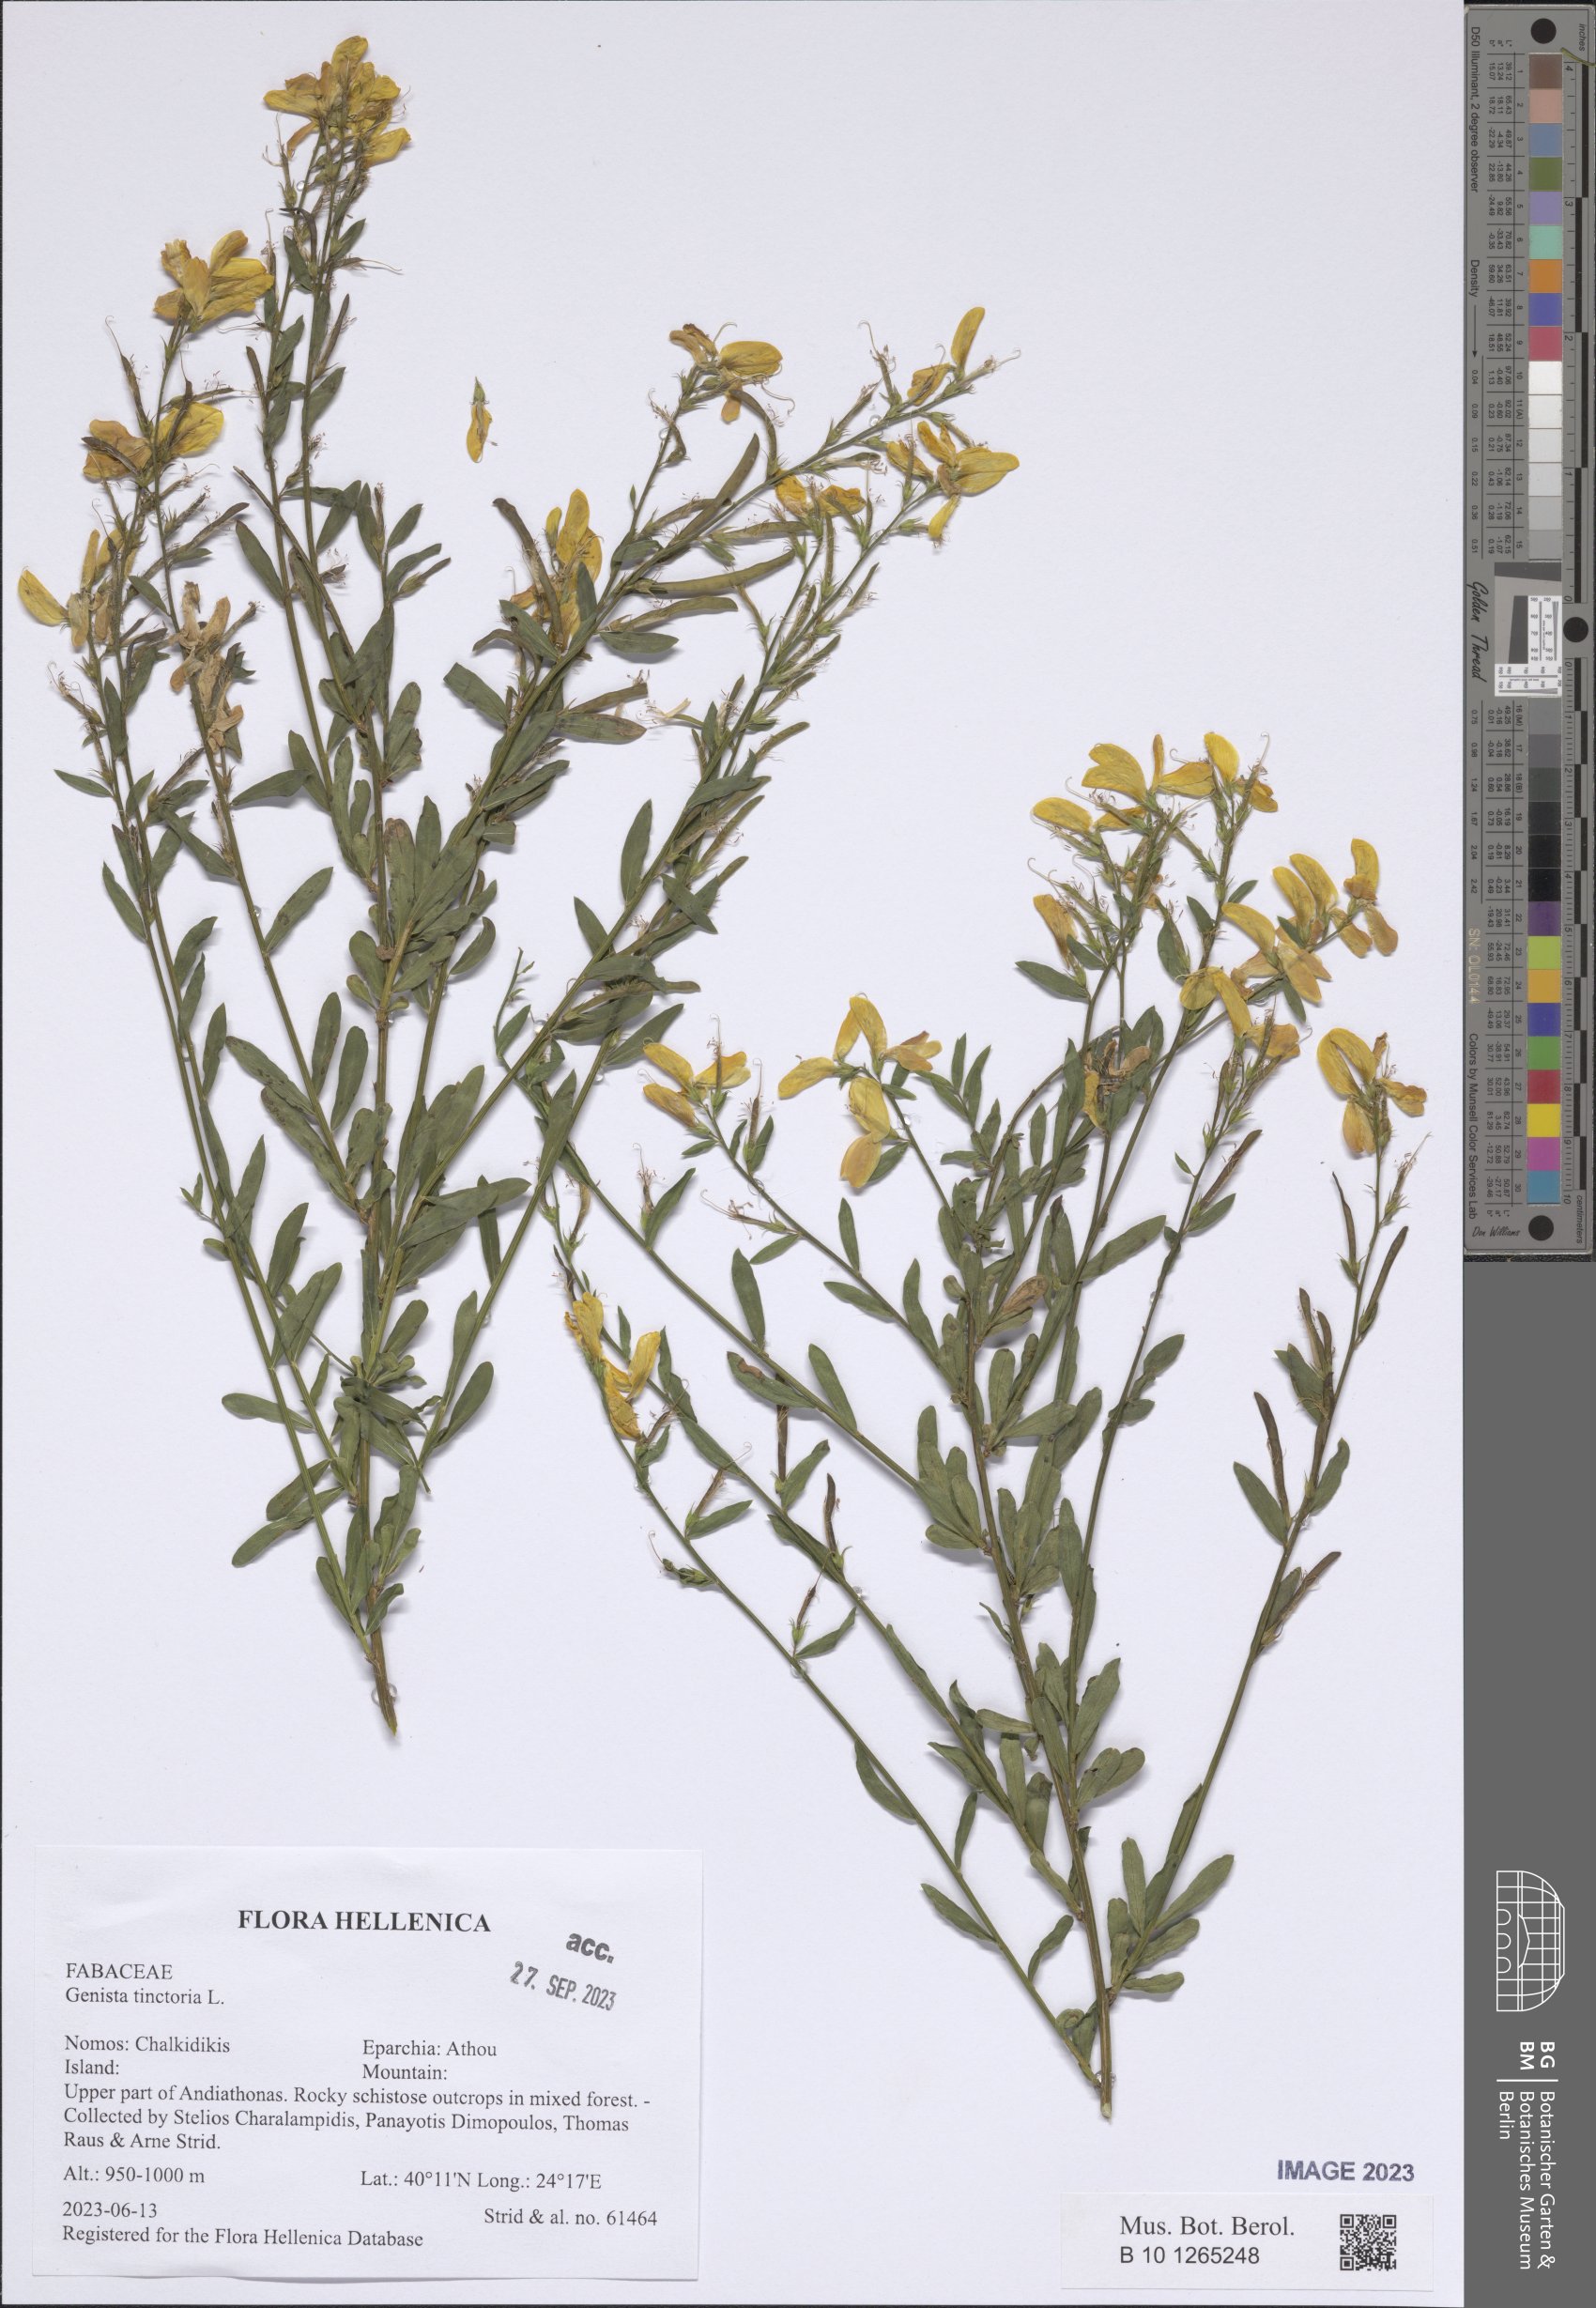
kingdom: Plantae
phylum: Tracheophyta
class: Magnoliopsida
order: Fabales
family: Fabaceae
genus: Genista
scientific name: Genista tinctoria
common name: Dyer's greenweed
